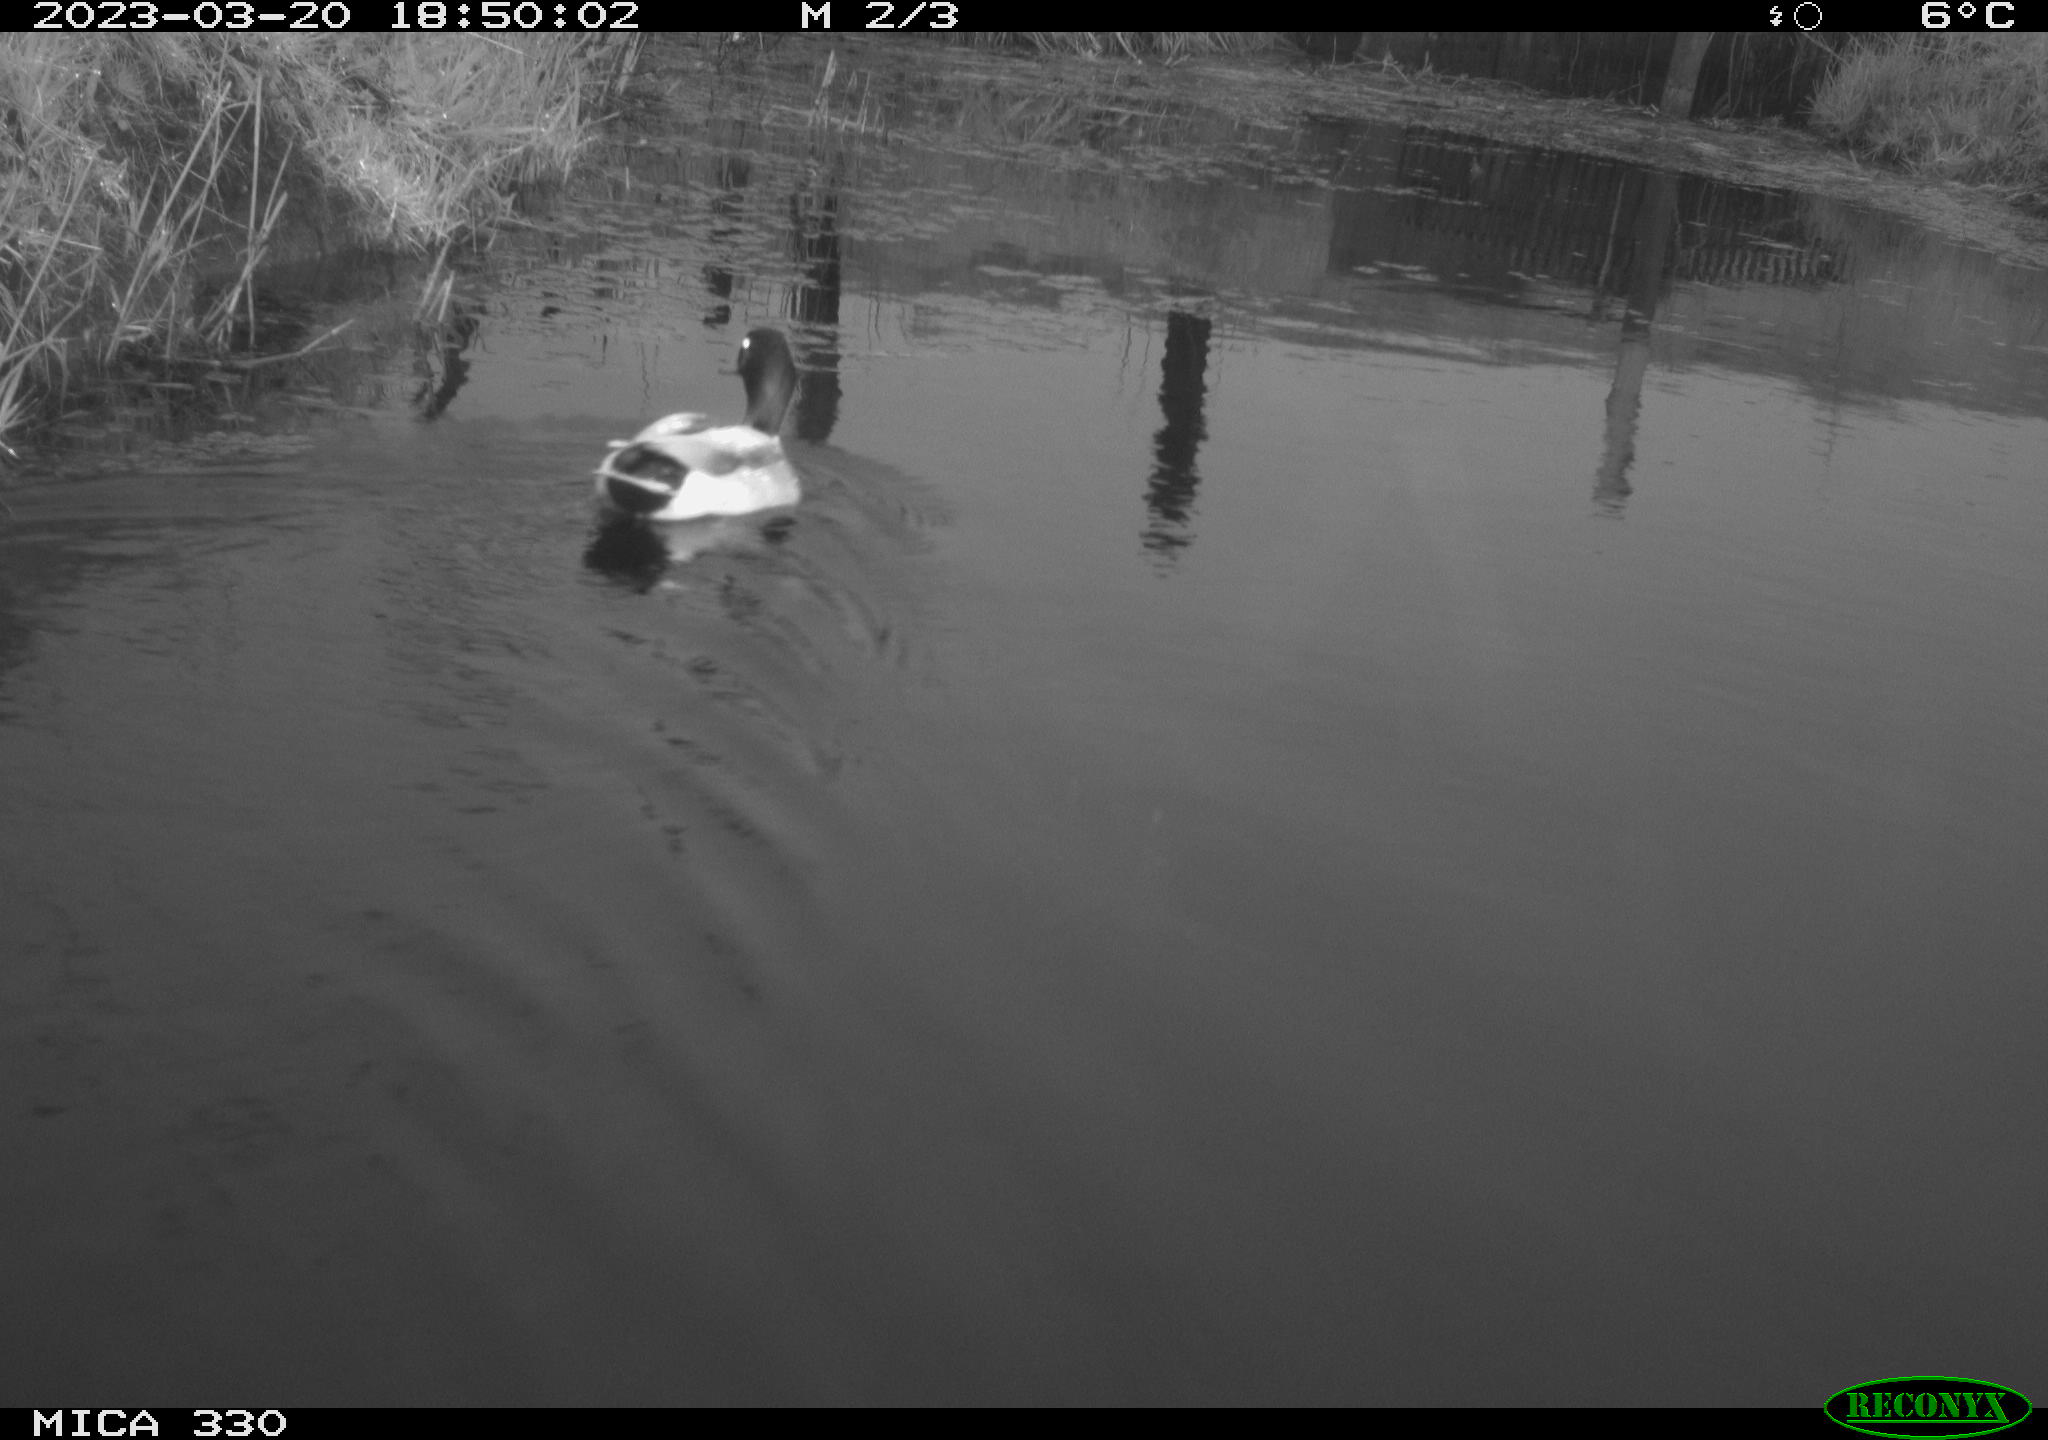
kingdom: Animalia
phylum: Chordata
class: Aves
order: Anseriformes
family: Anatidae
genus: Anas
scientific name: Anas
